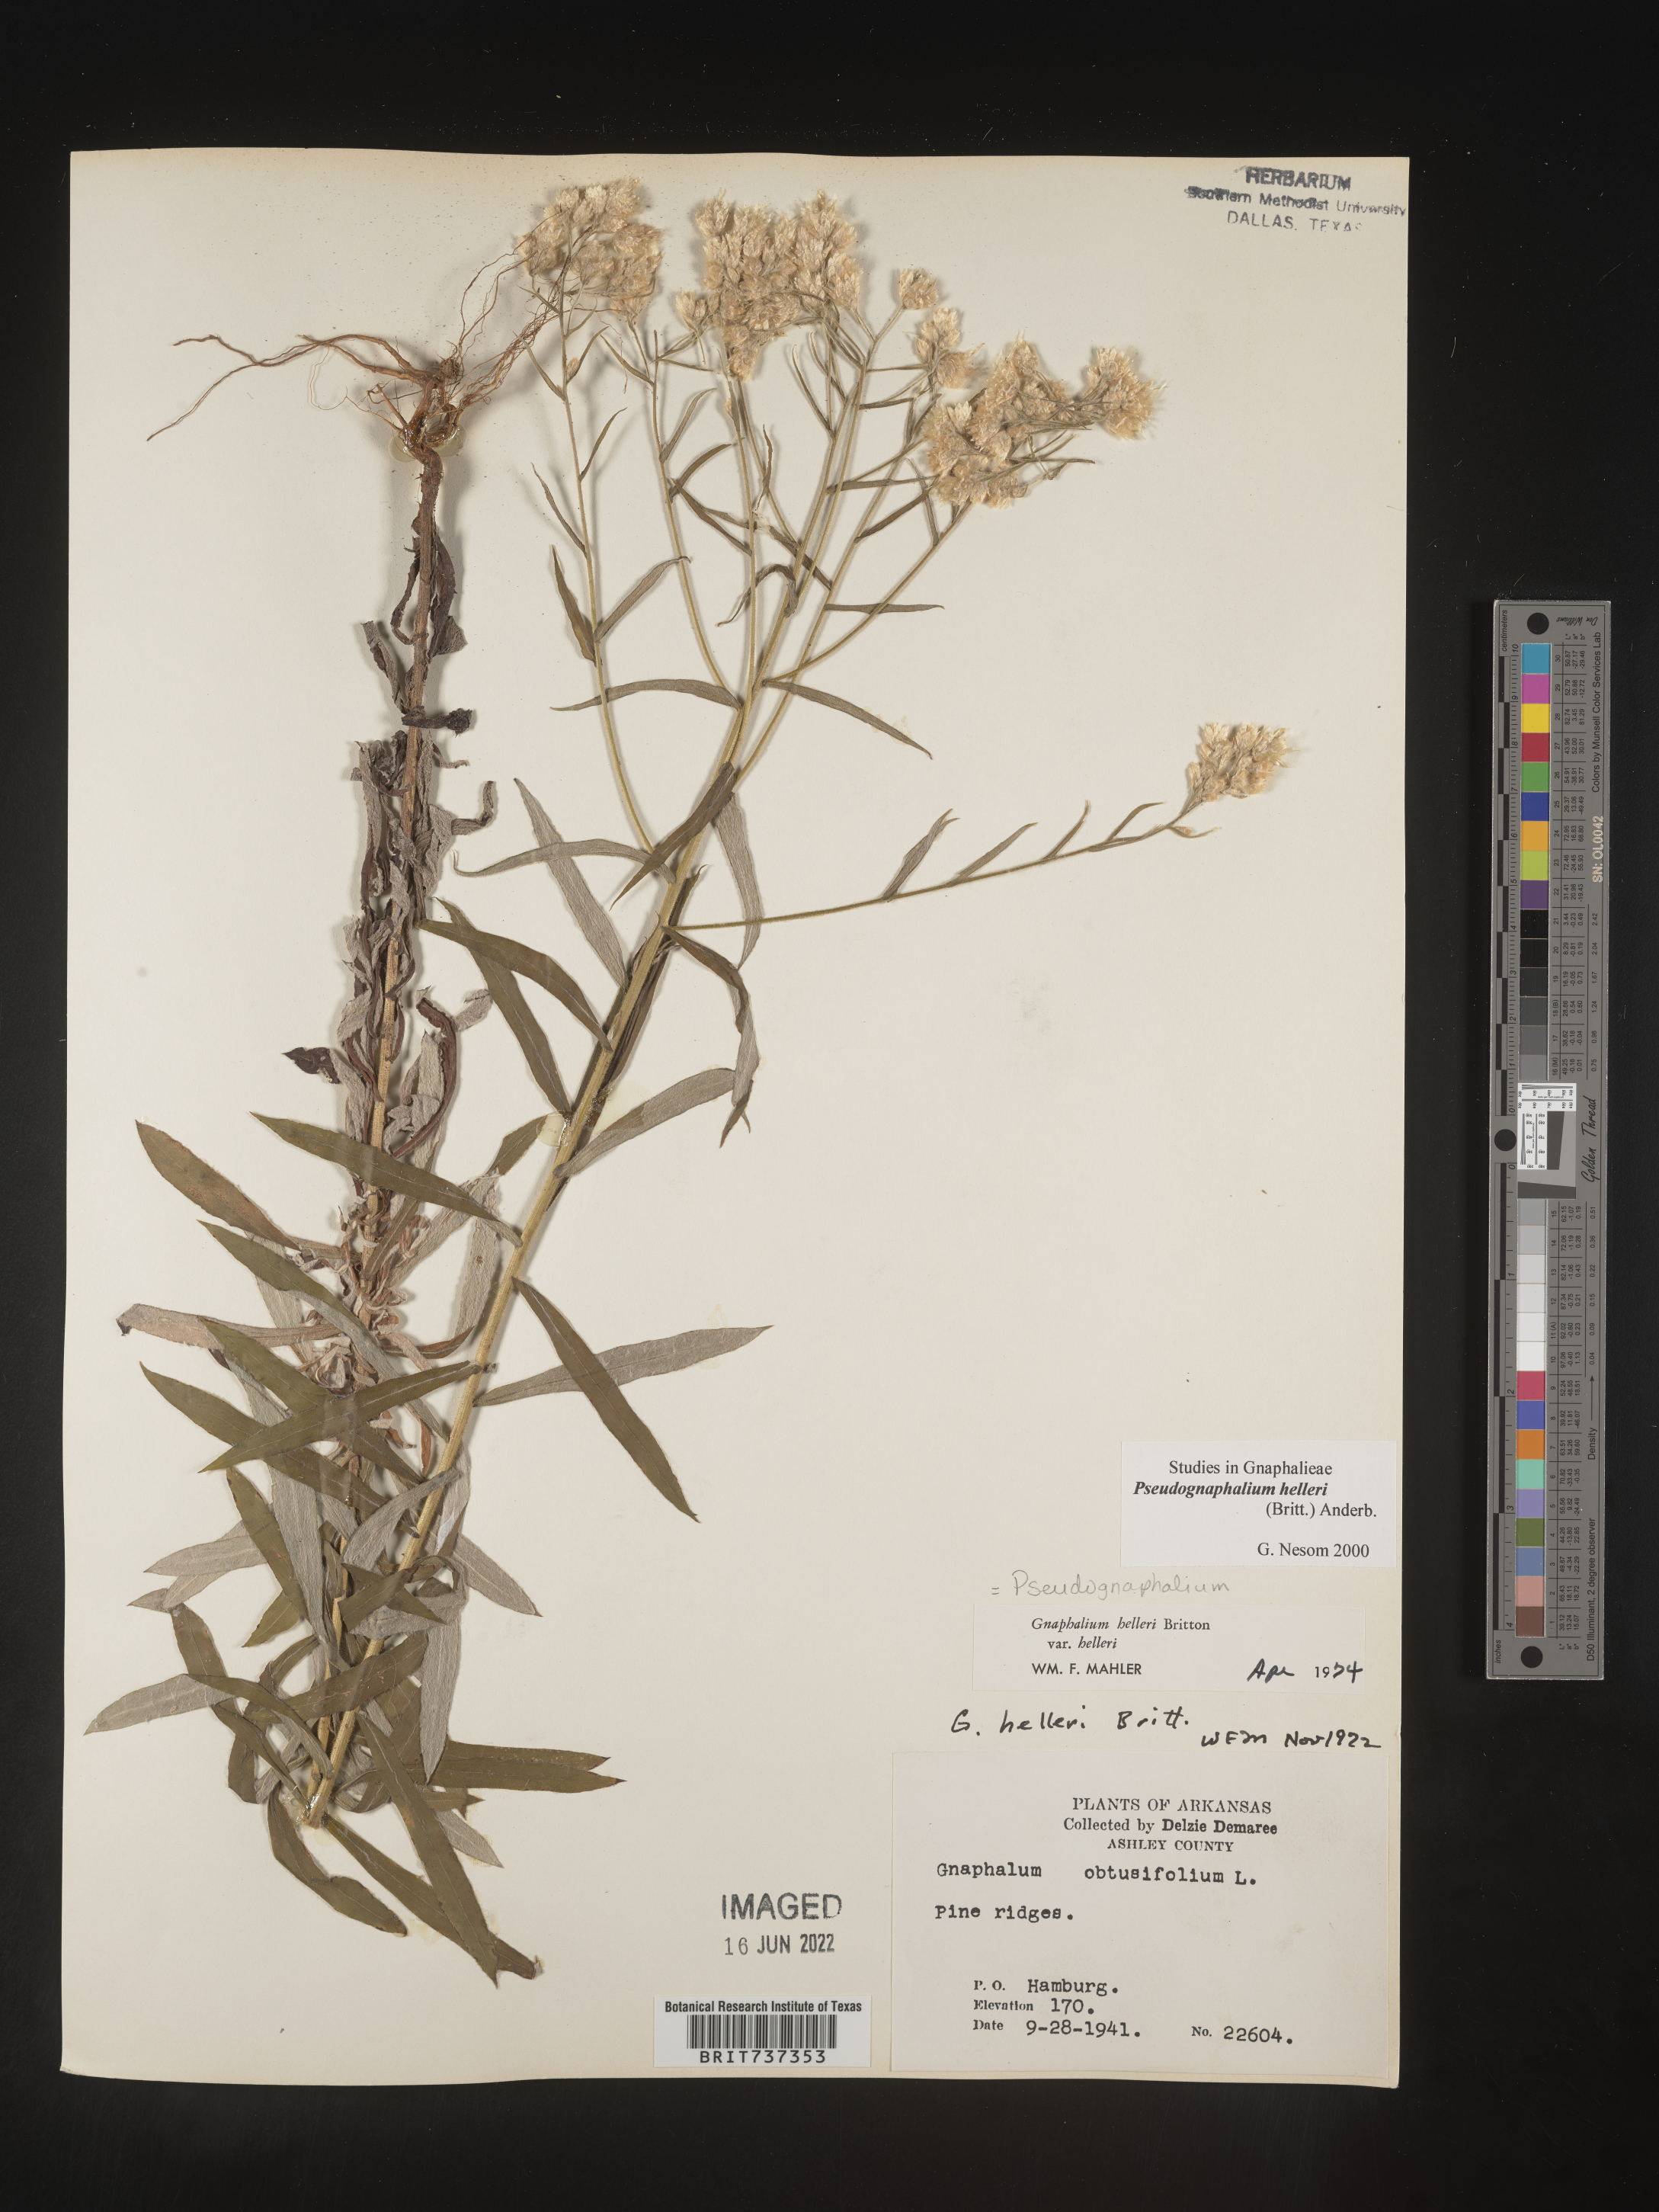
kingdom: Plantae
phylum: Tracheophyta
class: Magnoliopsida
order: Asterales
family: Asteraceae
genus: Pseudognaphalium
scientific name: Pseudognaphalium helleri
